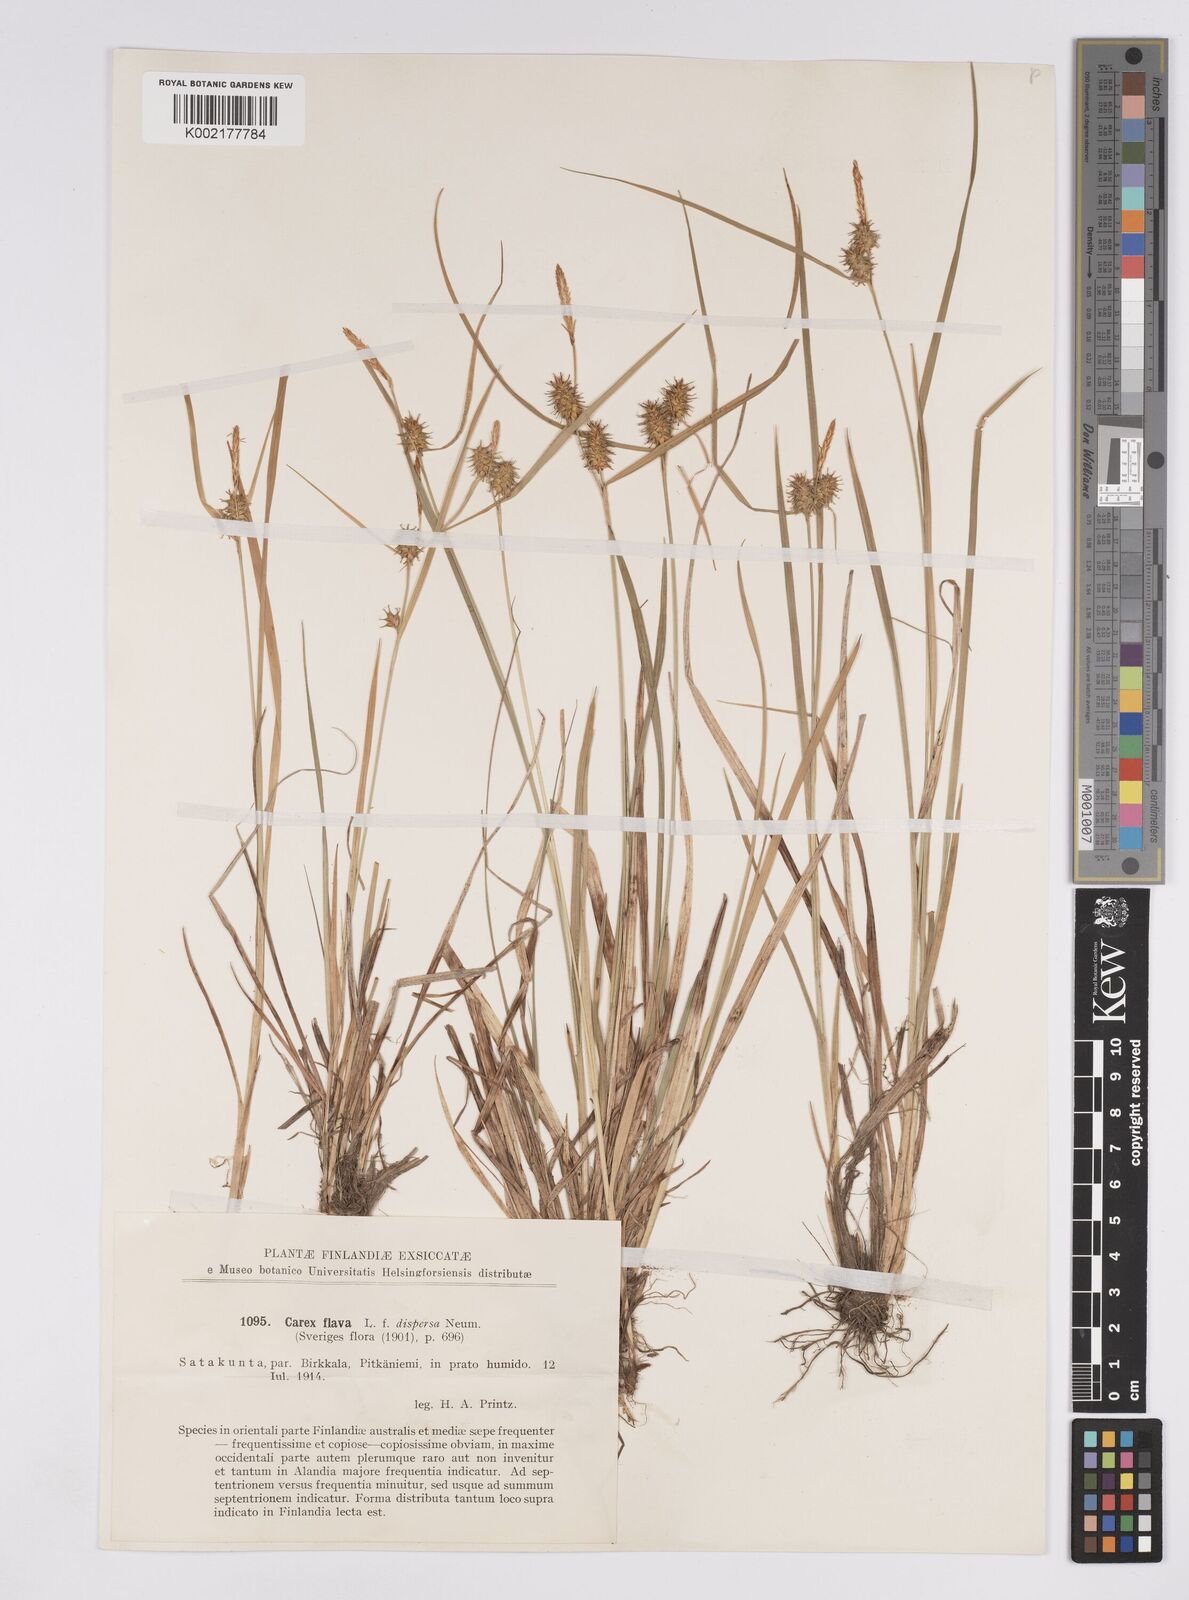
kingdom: Plantae
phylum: Tracheophyta
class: Liliopsida
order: Poales
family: Cyperaceae
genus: Carex
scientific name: Carex flava
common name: Large yellow-sedge
